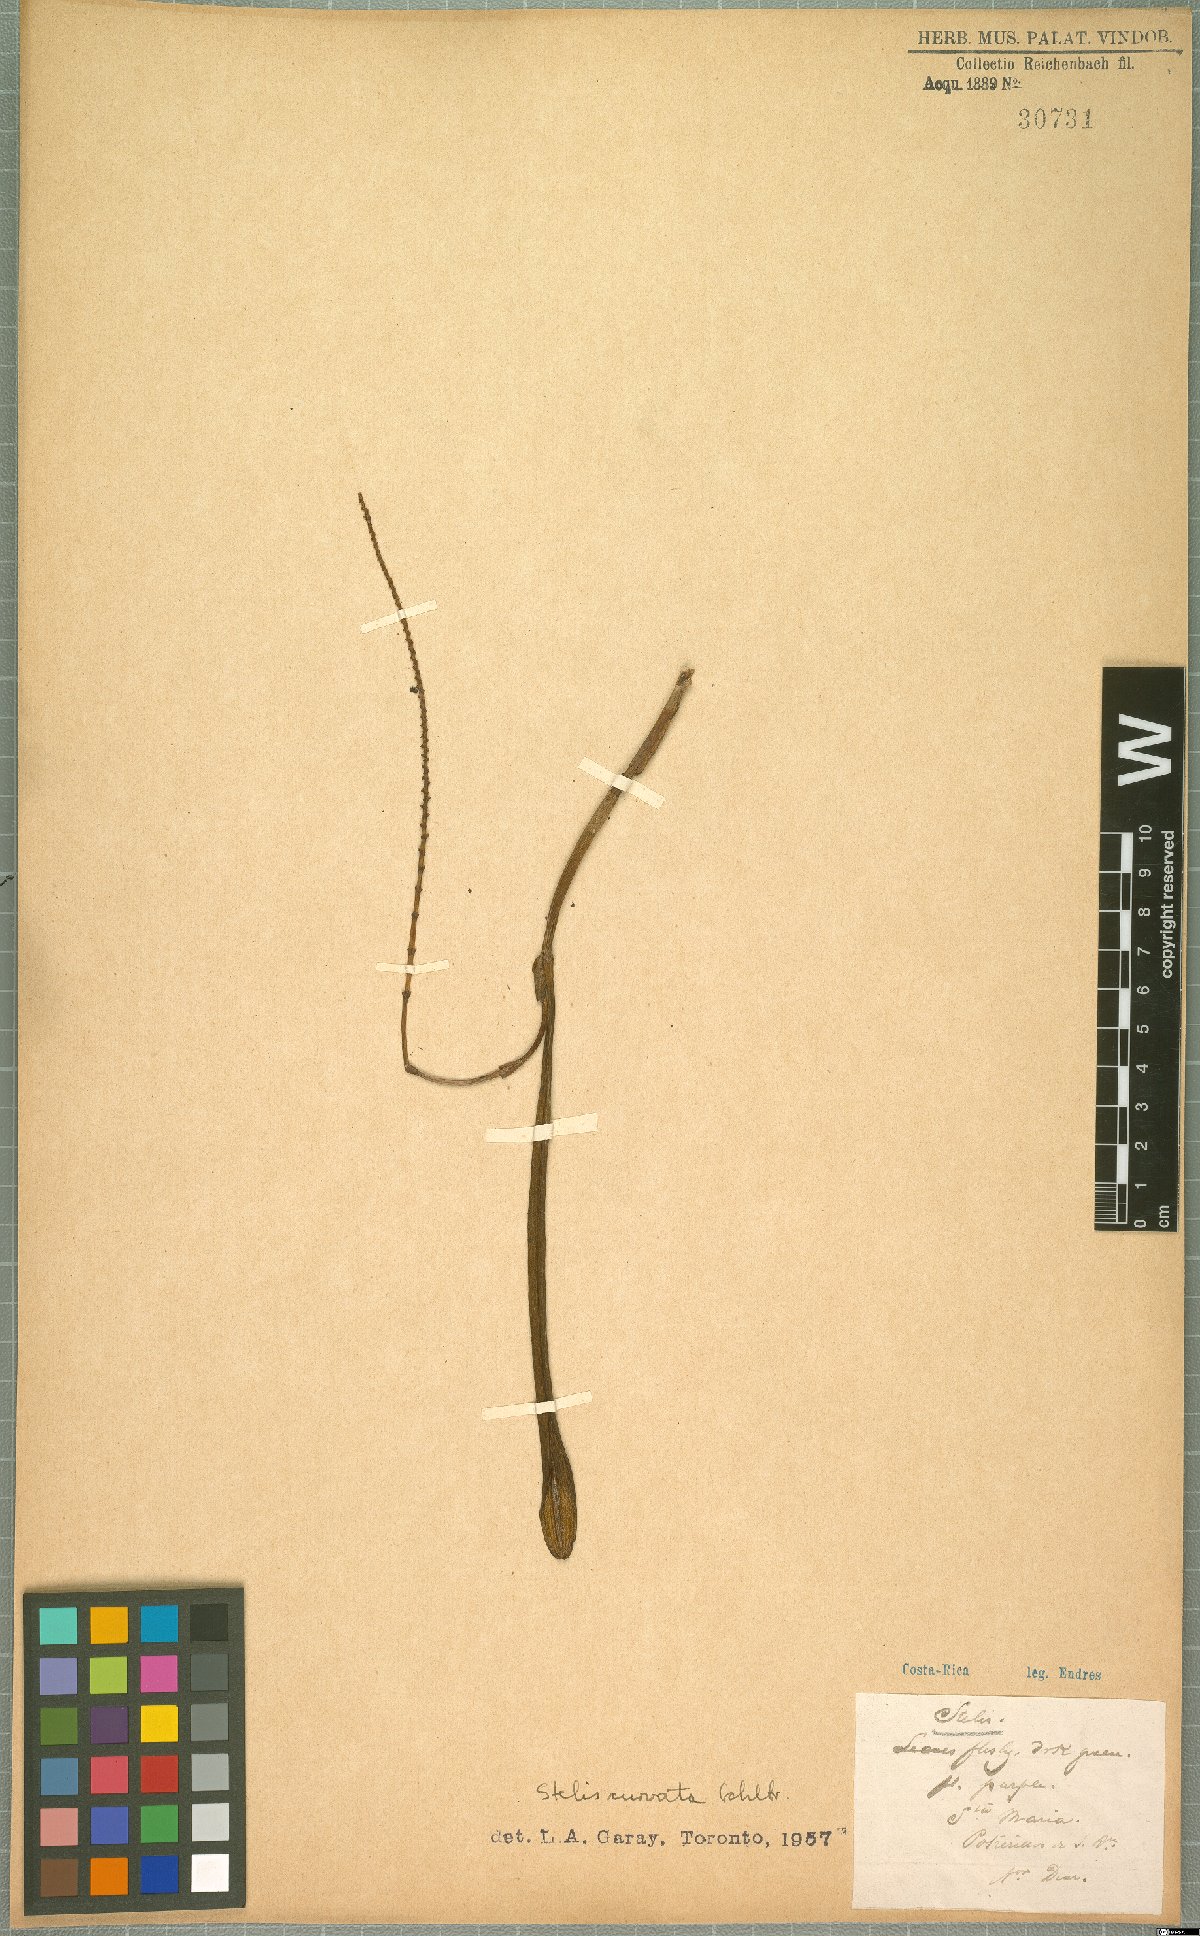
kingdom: Plantae
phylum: Tracheophyta
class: Liliopsida
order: Asparagales
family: Orchidaceae
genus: Stelis
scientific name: Stelis purpurascens
